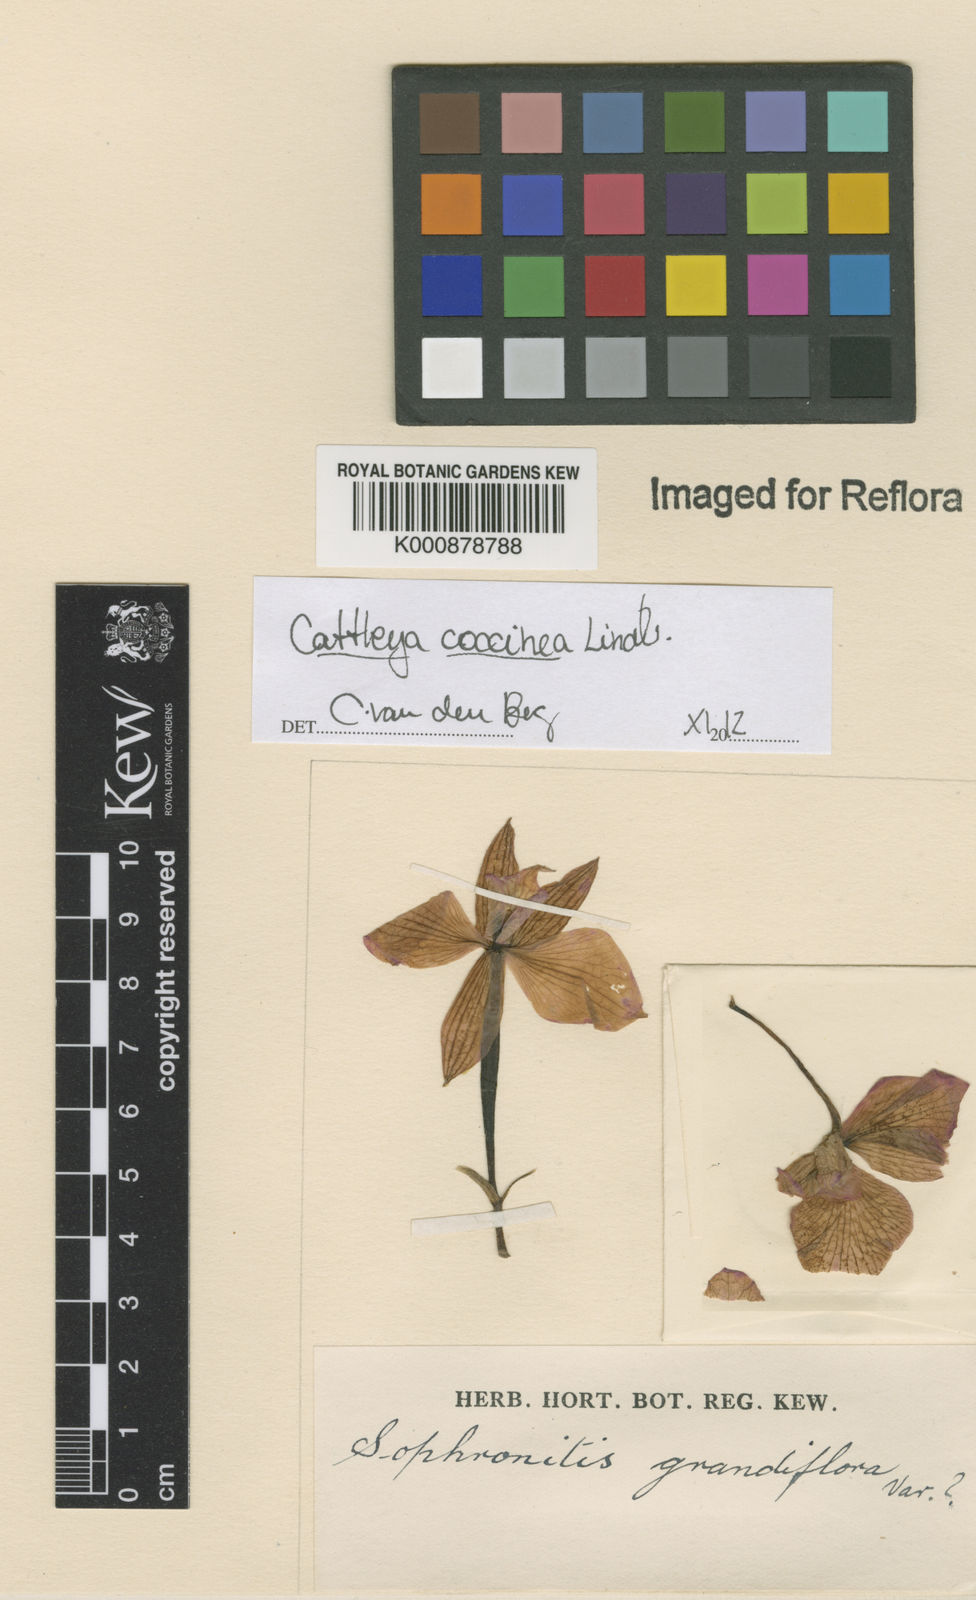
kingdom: Plantae
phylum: Tracheophyta
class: Liliopsida
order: Asparagales
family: Orchidaceae
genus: Cattleya
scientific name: Cattleya coccinea
